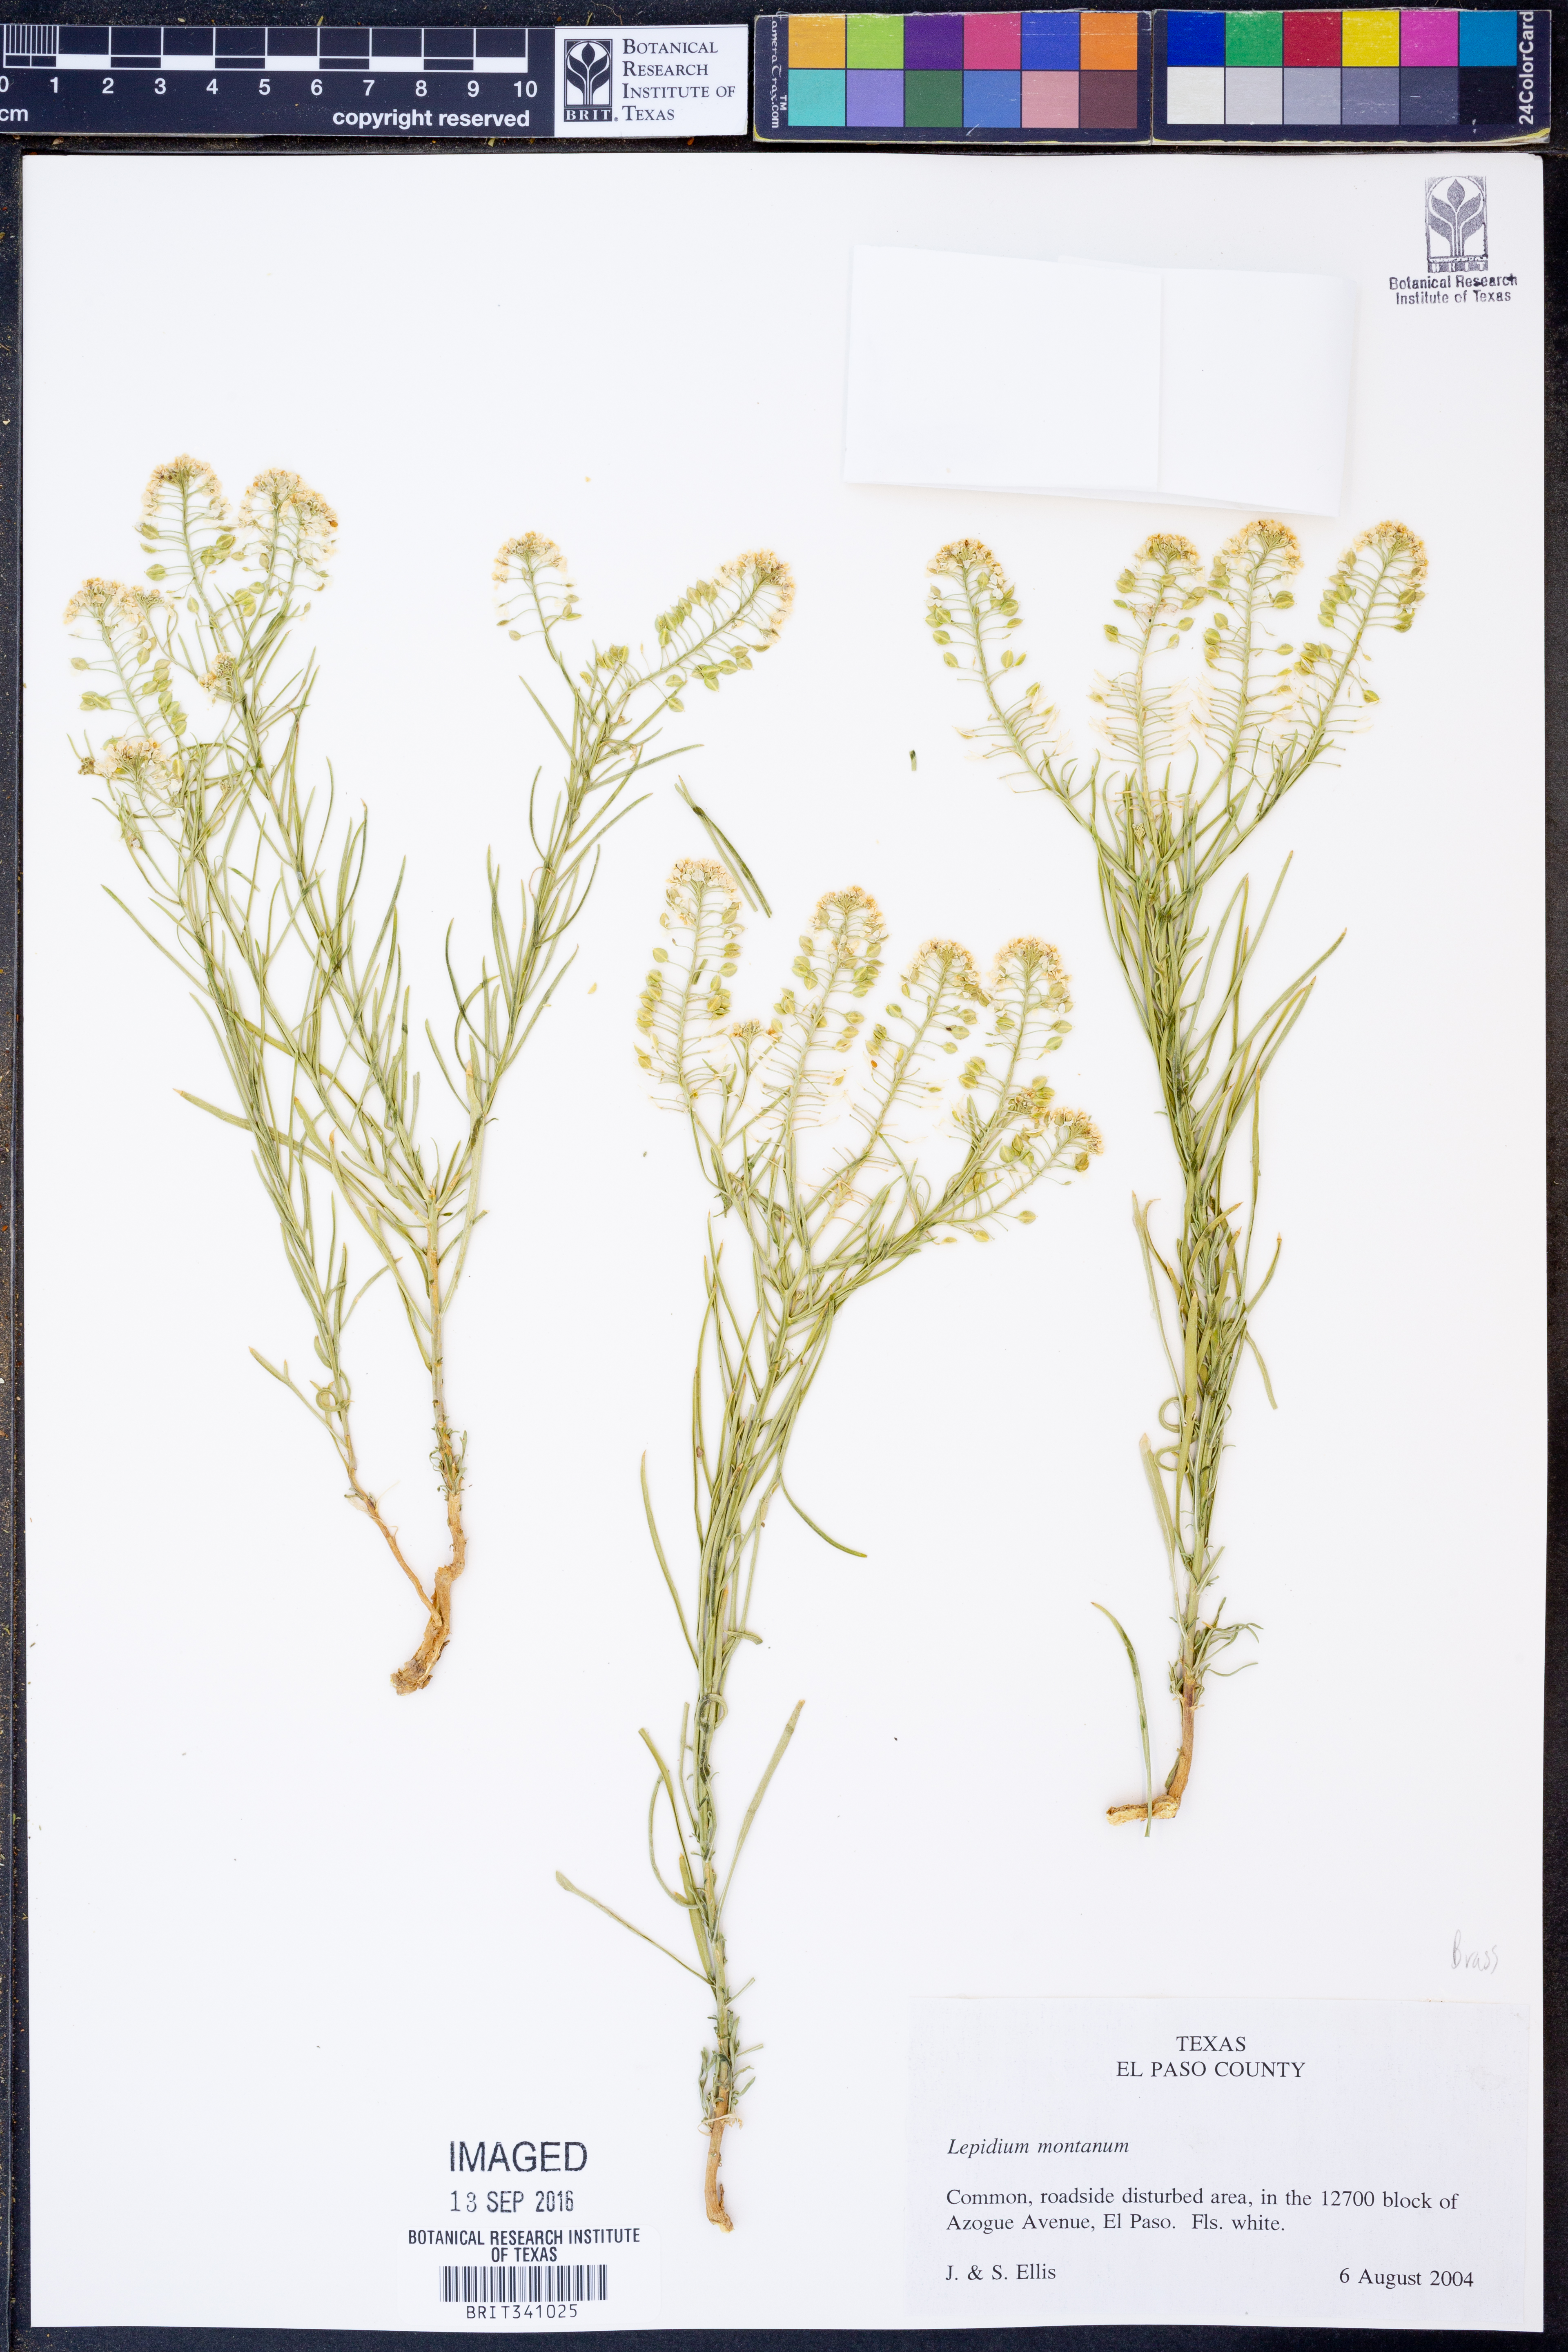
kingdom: Plantae
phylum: Tracheophyta
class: Magnoliopsida
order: Brassicales
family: Brassicaceae
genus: Lepidium
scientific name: Lepidium montanum
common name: Mountain pepperplant
